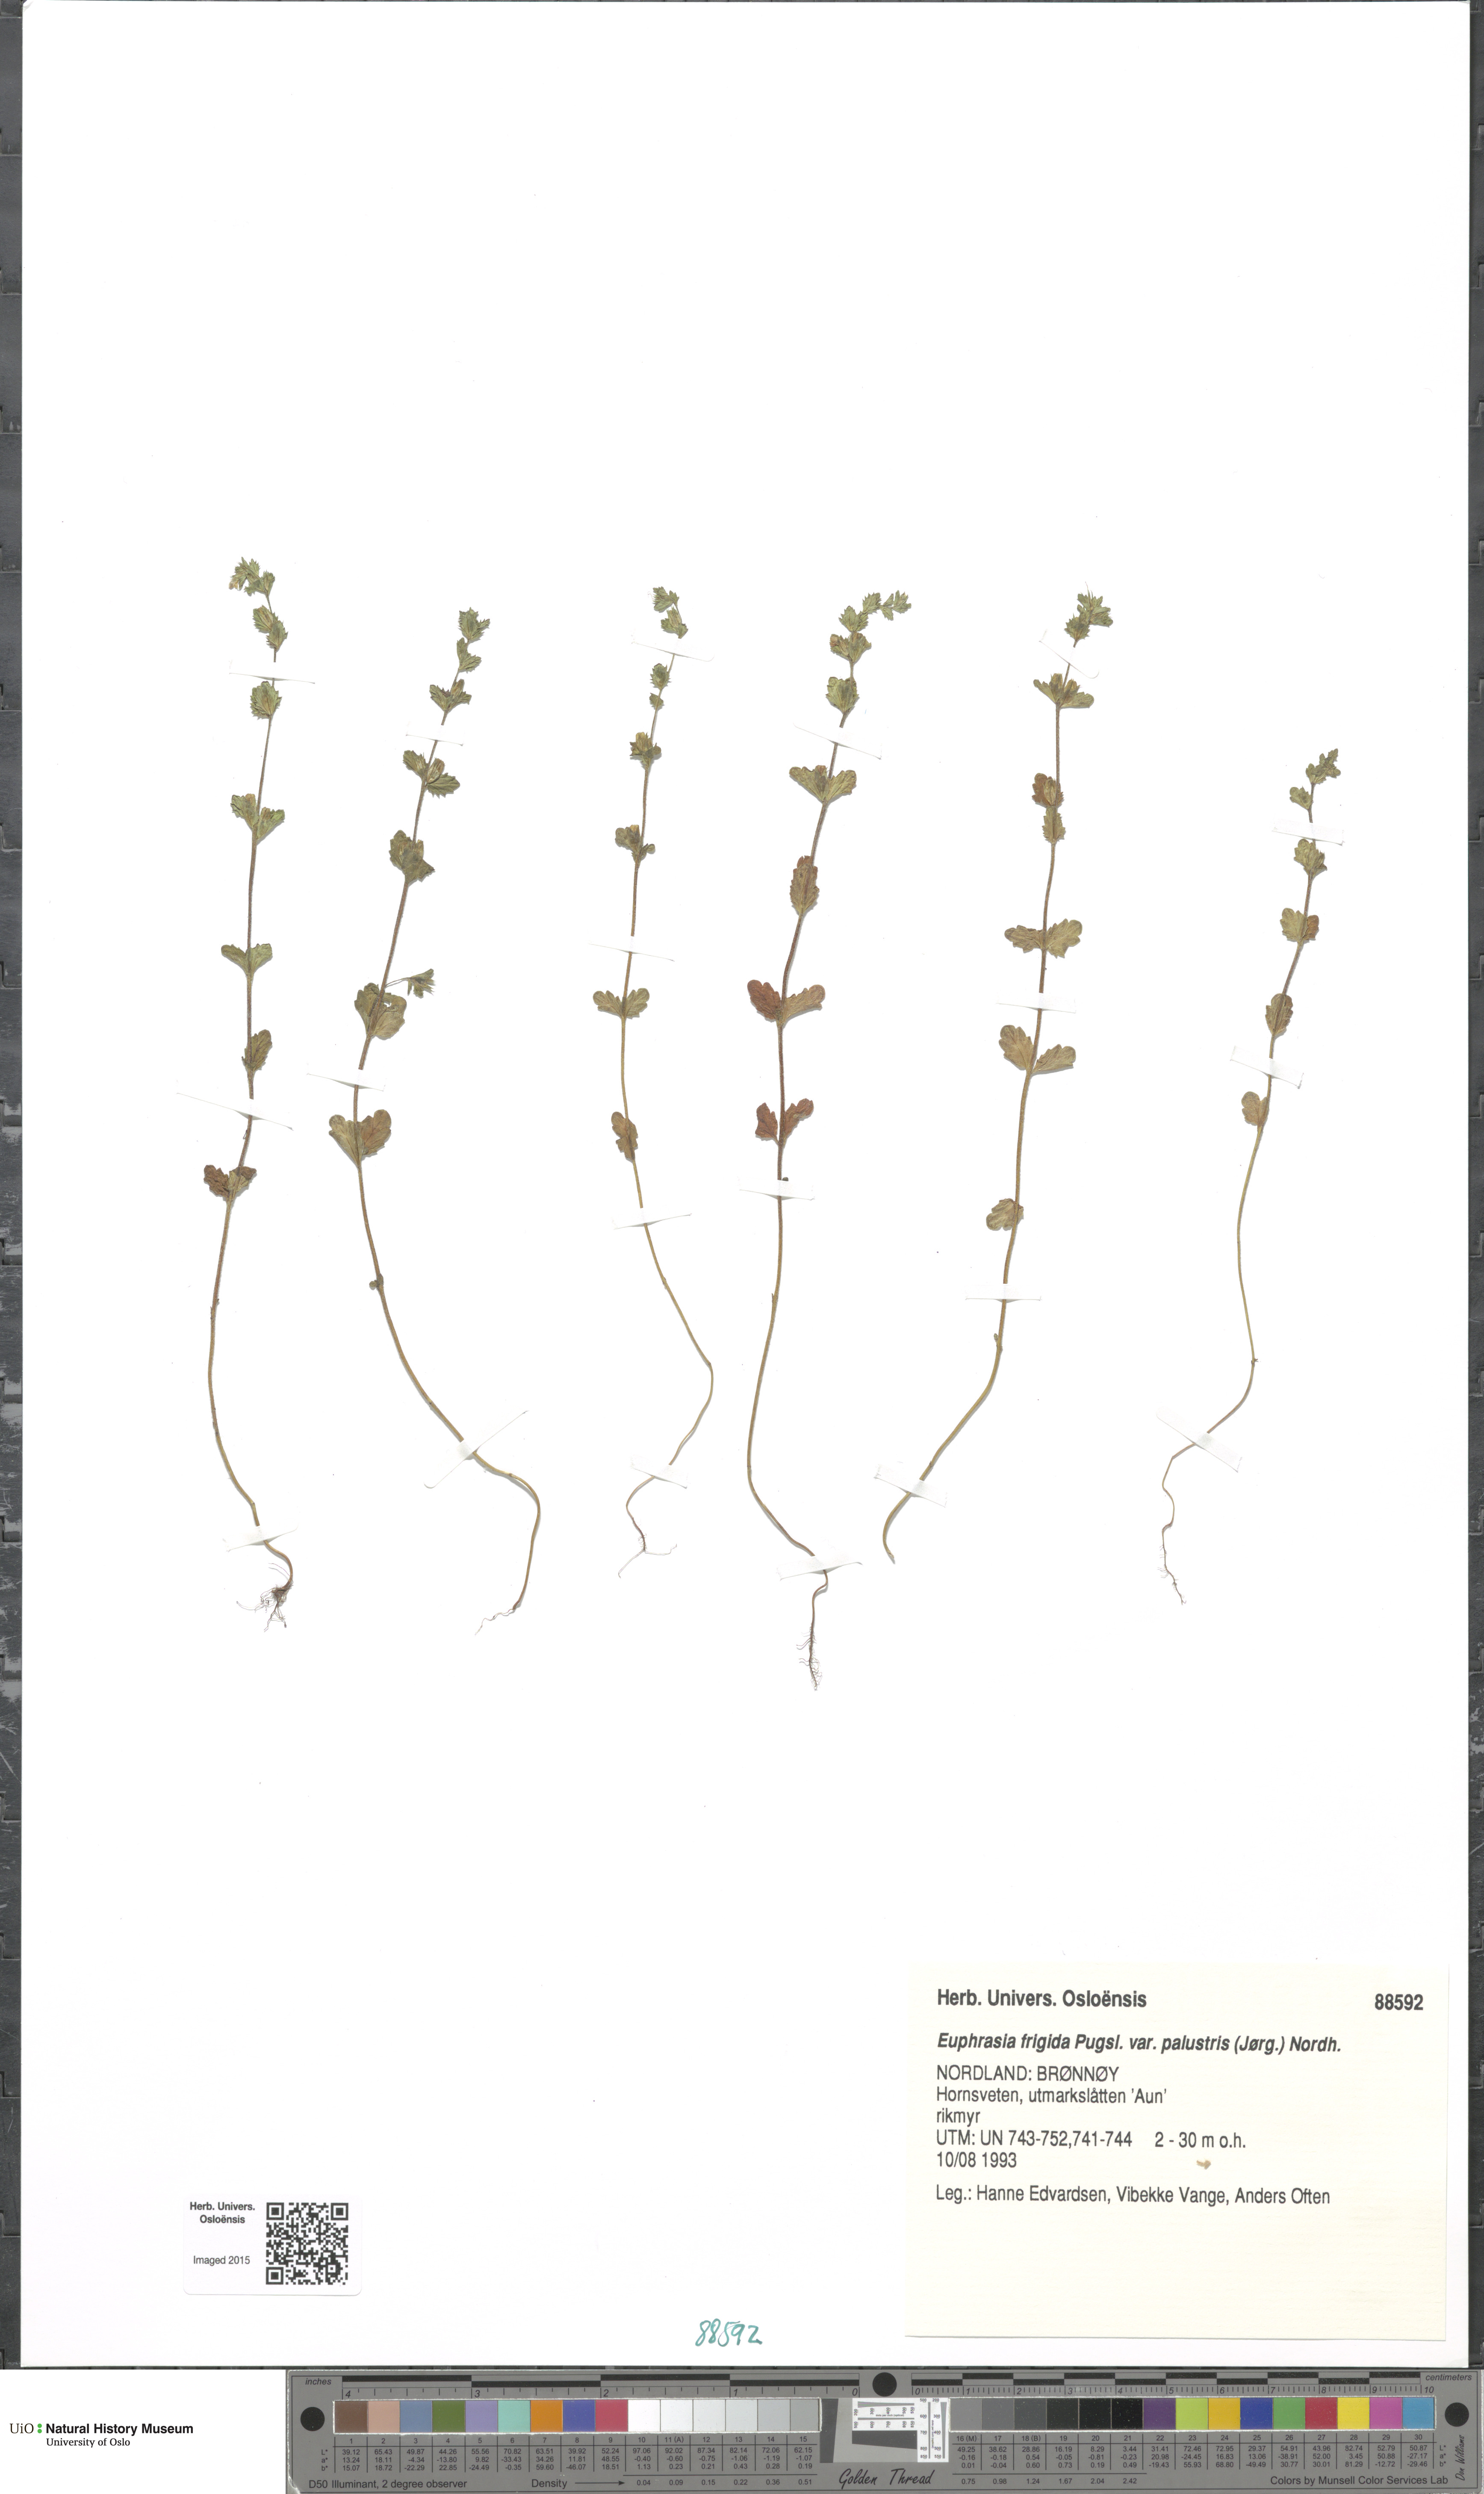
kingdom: Plantae
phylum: Tracheophyta
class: Magnoliopsida
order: Lamiales
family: Orobanchaceae
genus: Euphrasia
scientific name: Euphrasia wettsteinii
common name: Wettstein's eyebright
